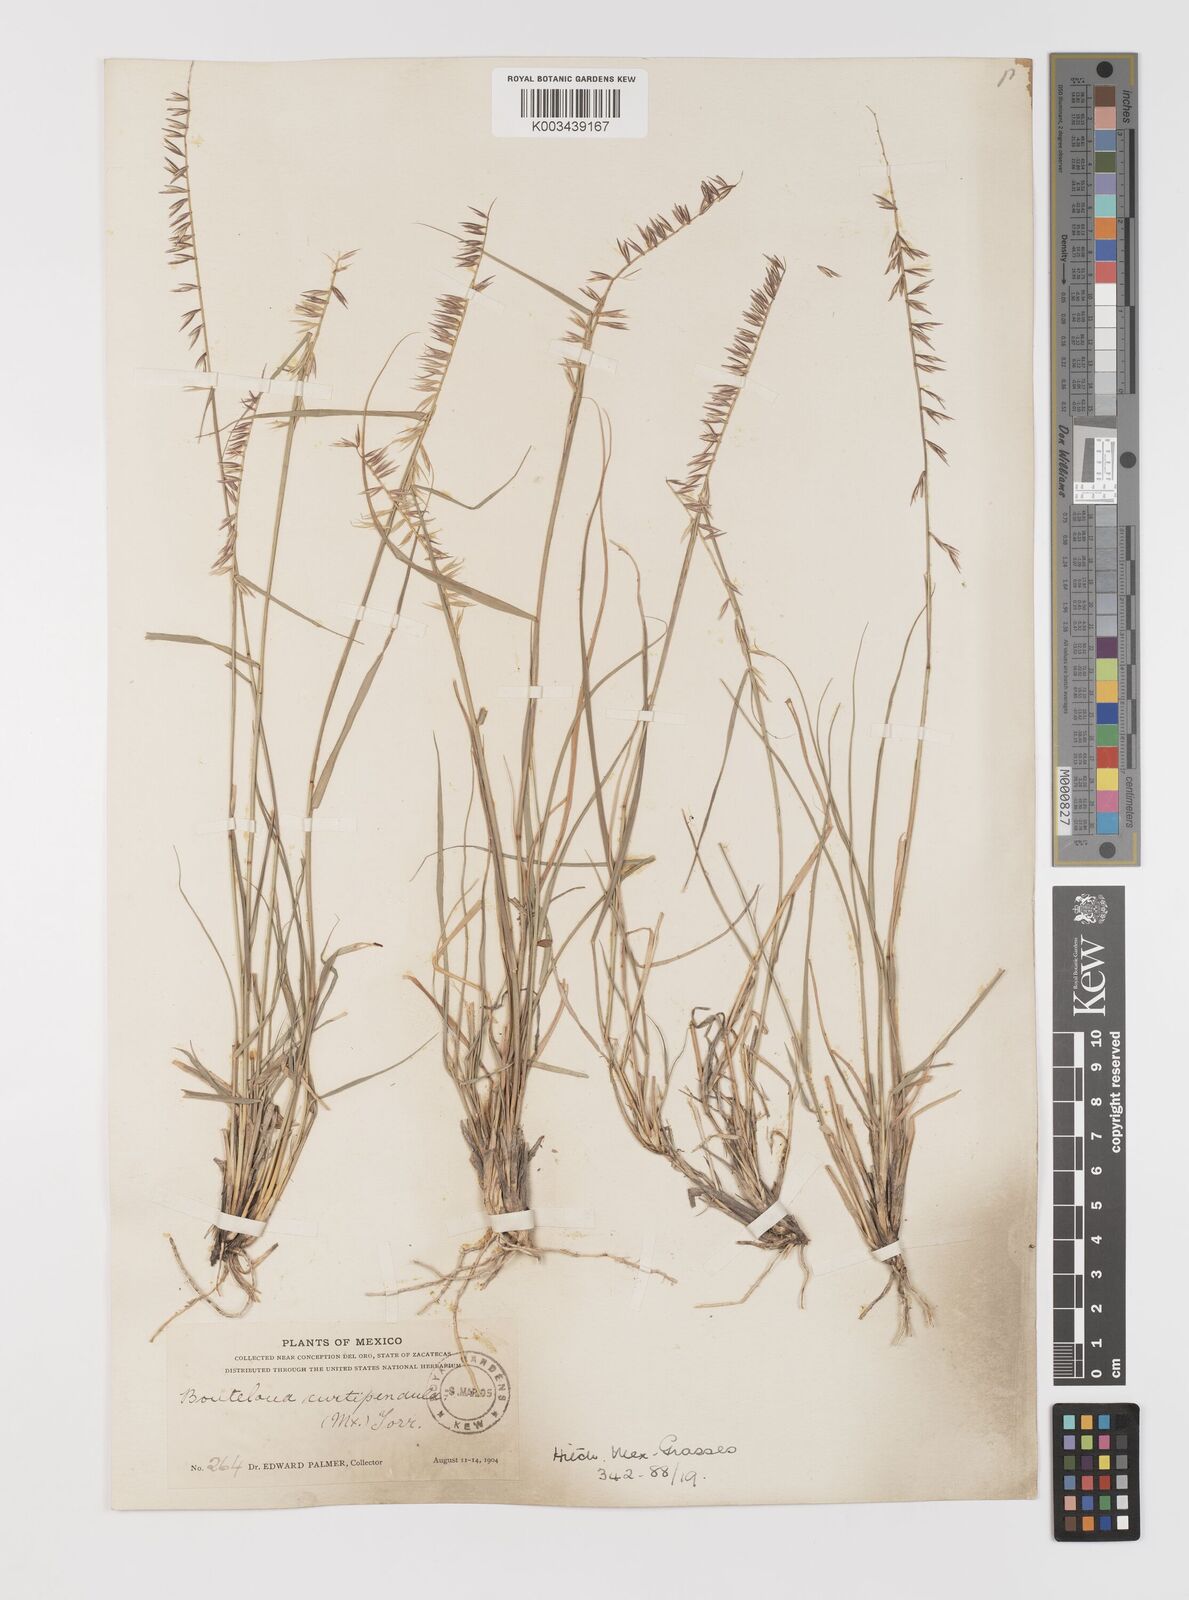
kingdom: Plantae
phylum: Tracheophyta
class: Liliopsida
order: Poales
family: Poaceae
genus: Bouteloua
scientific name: Bouteloua curtipendula
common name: Side-oats grama
